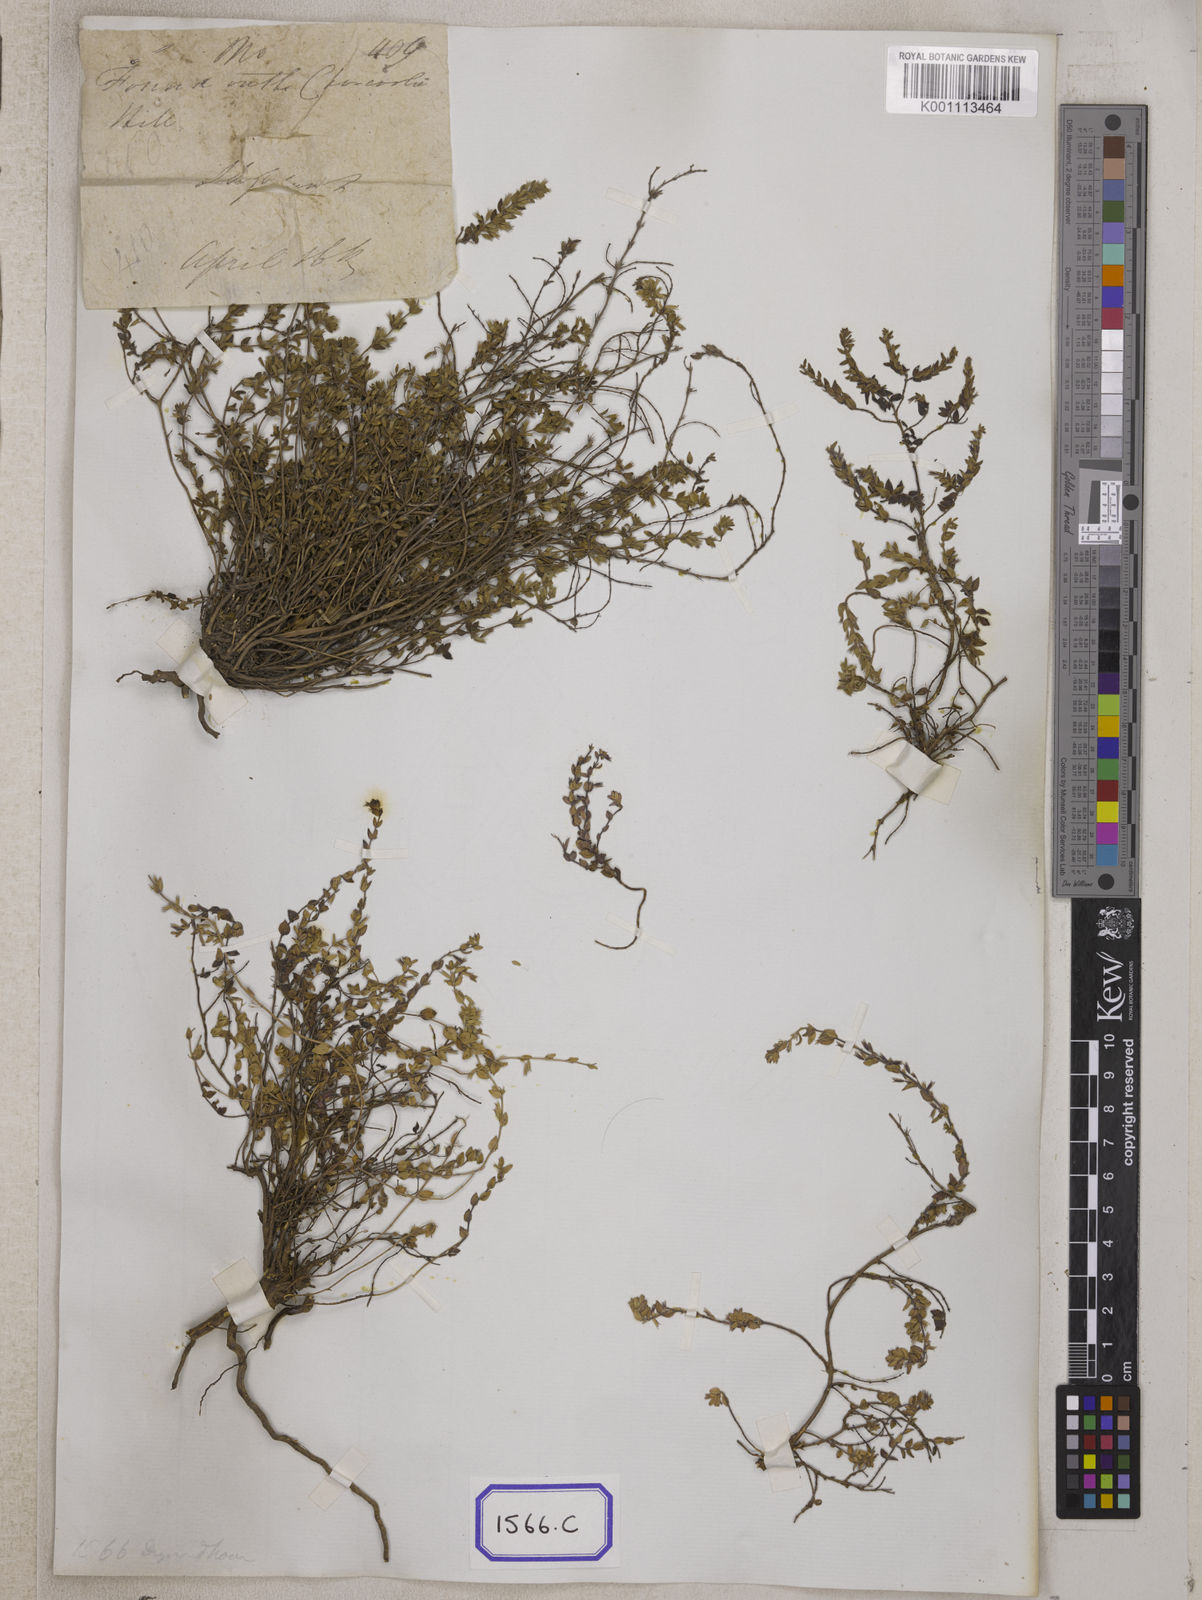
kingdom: Plantae
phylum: Tracheophyta
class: Magnoliopsida
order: Lamiales
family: Lamiaceae
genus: Thymus
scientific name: Thymus
